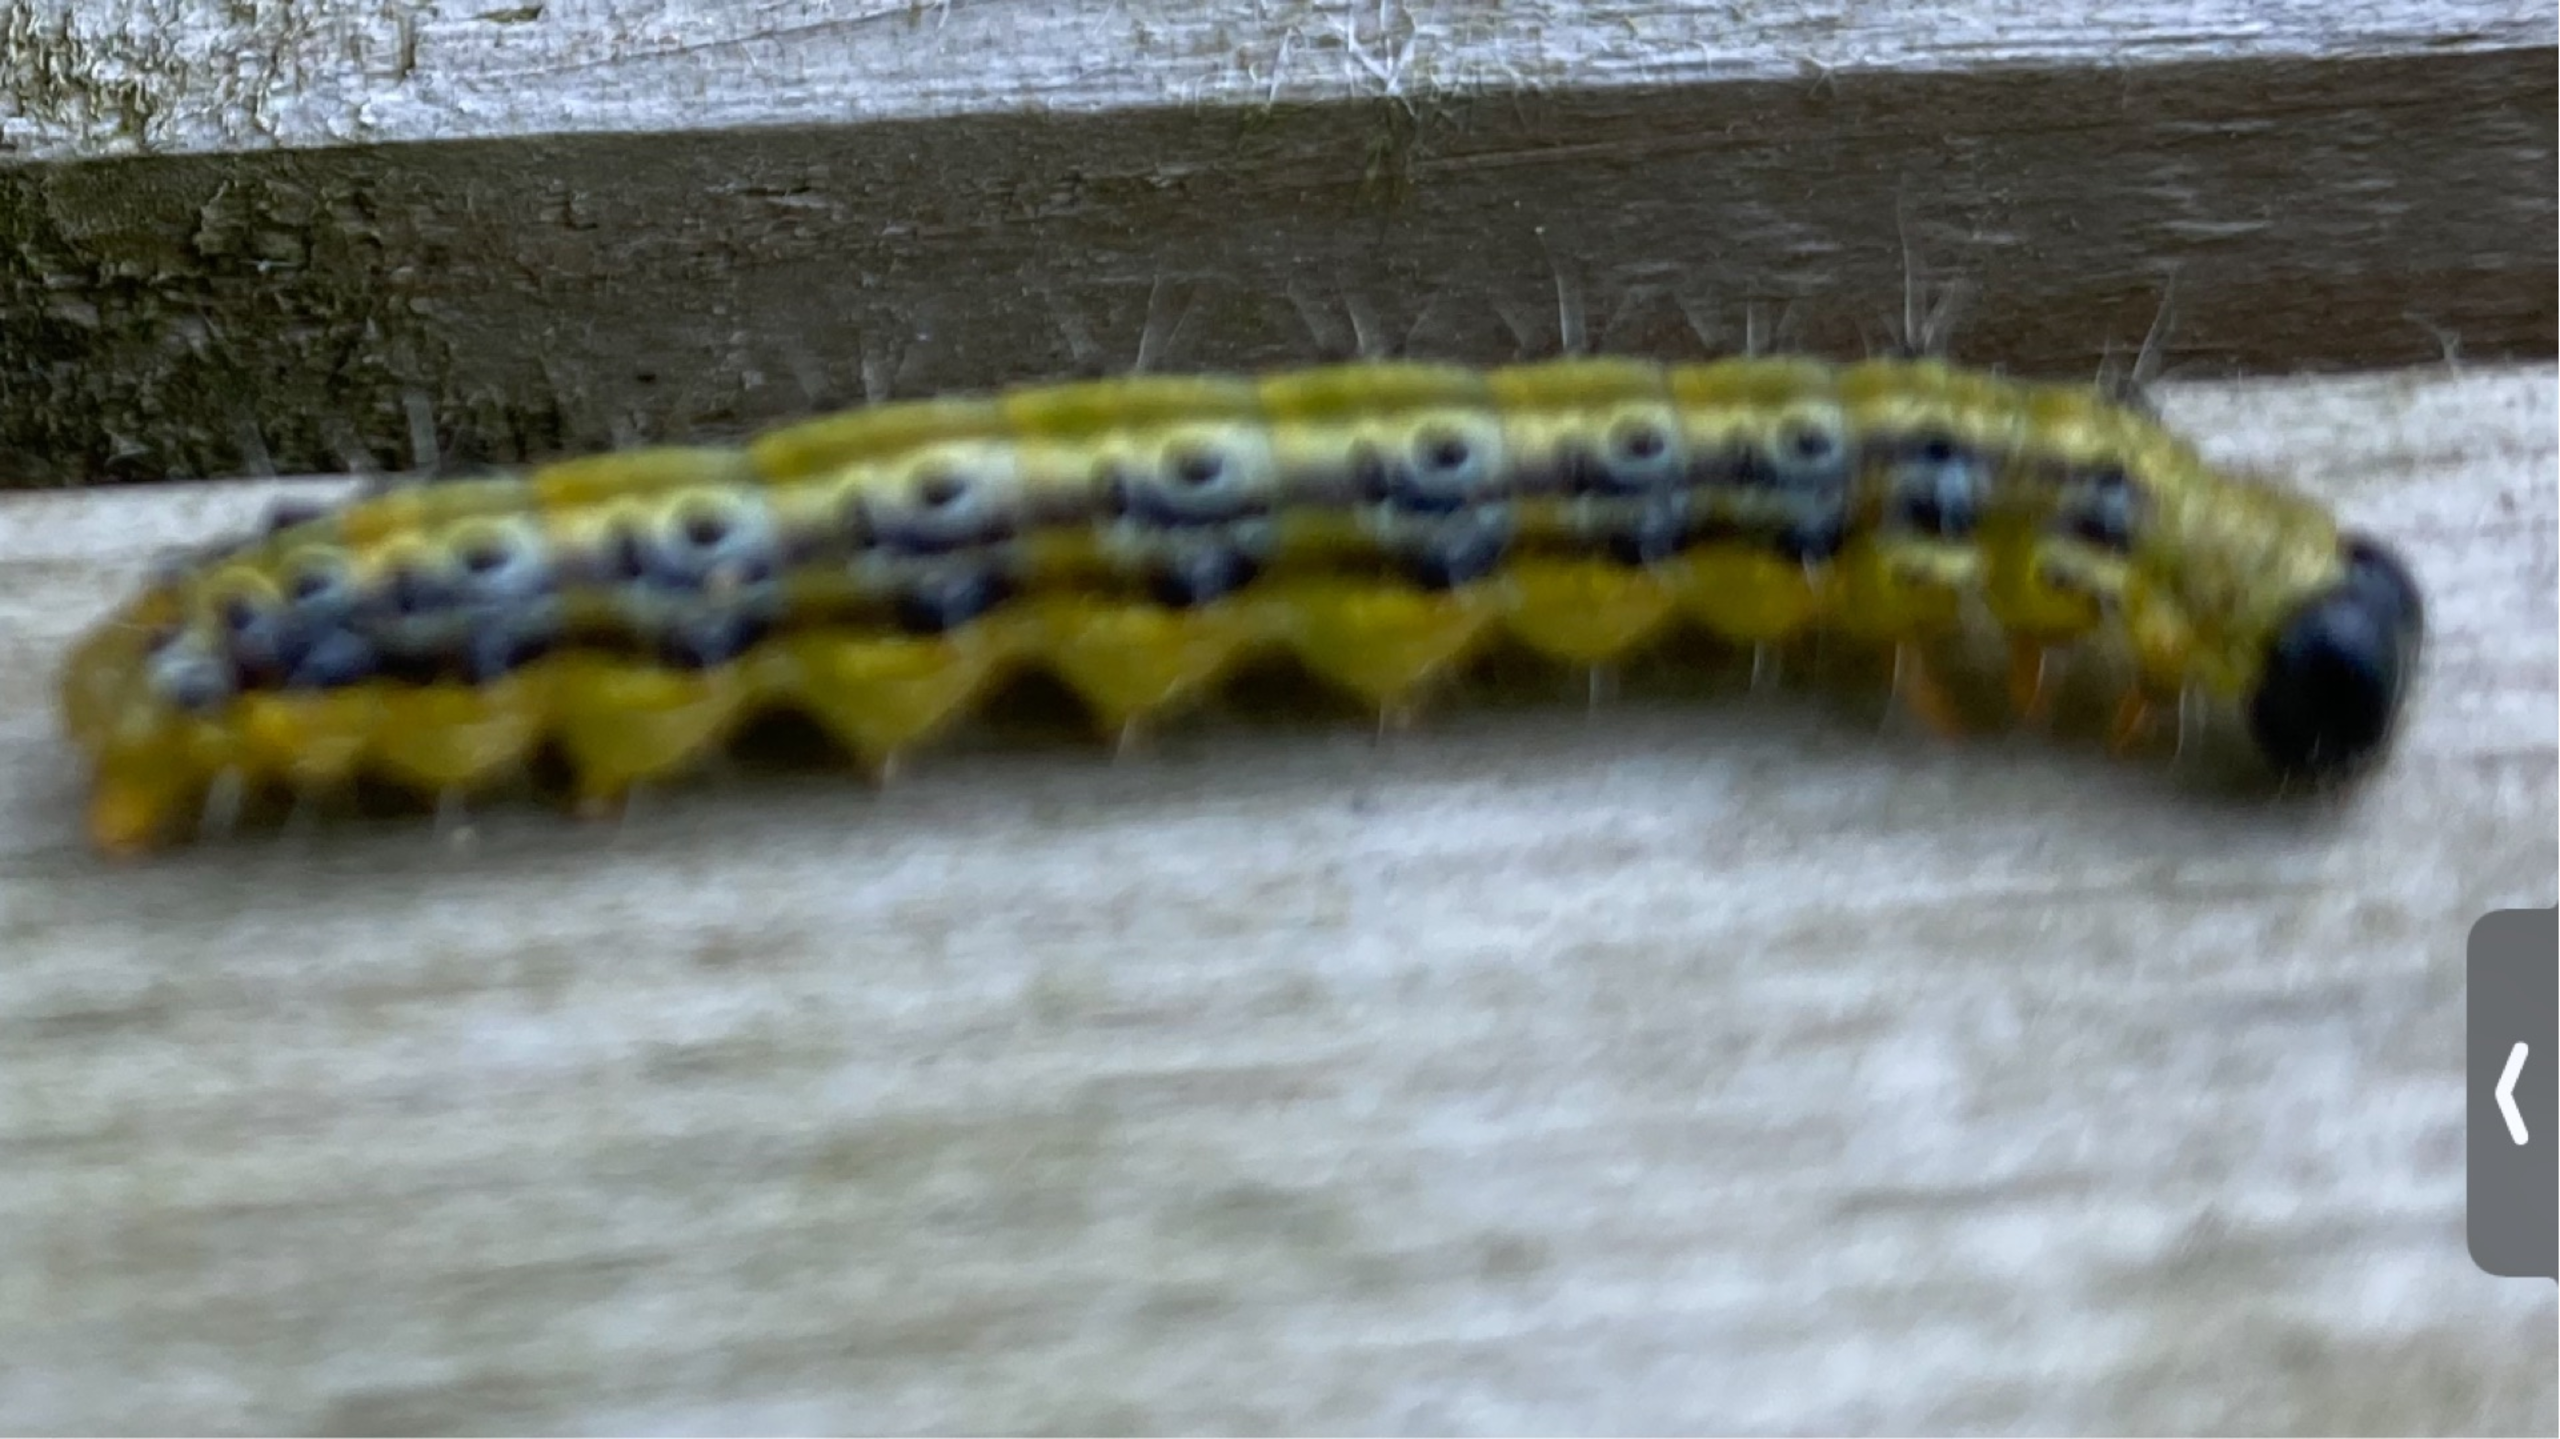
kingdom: Animalia
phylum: Arthropoda
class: Insecta
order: Lepidoptera
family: Crambidae
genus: Cydalima
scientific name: Cydalima perspectalis
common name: Buksbomhalvmøl
